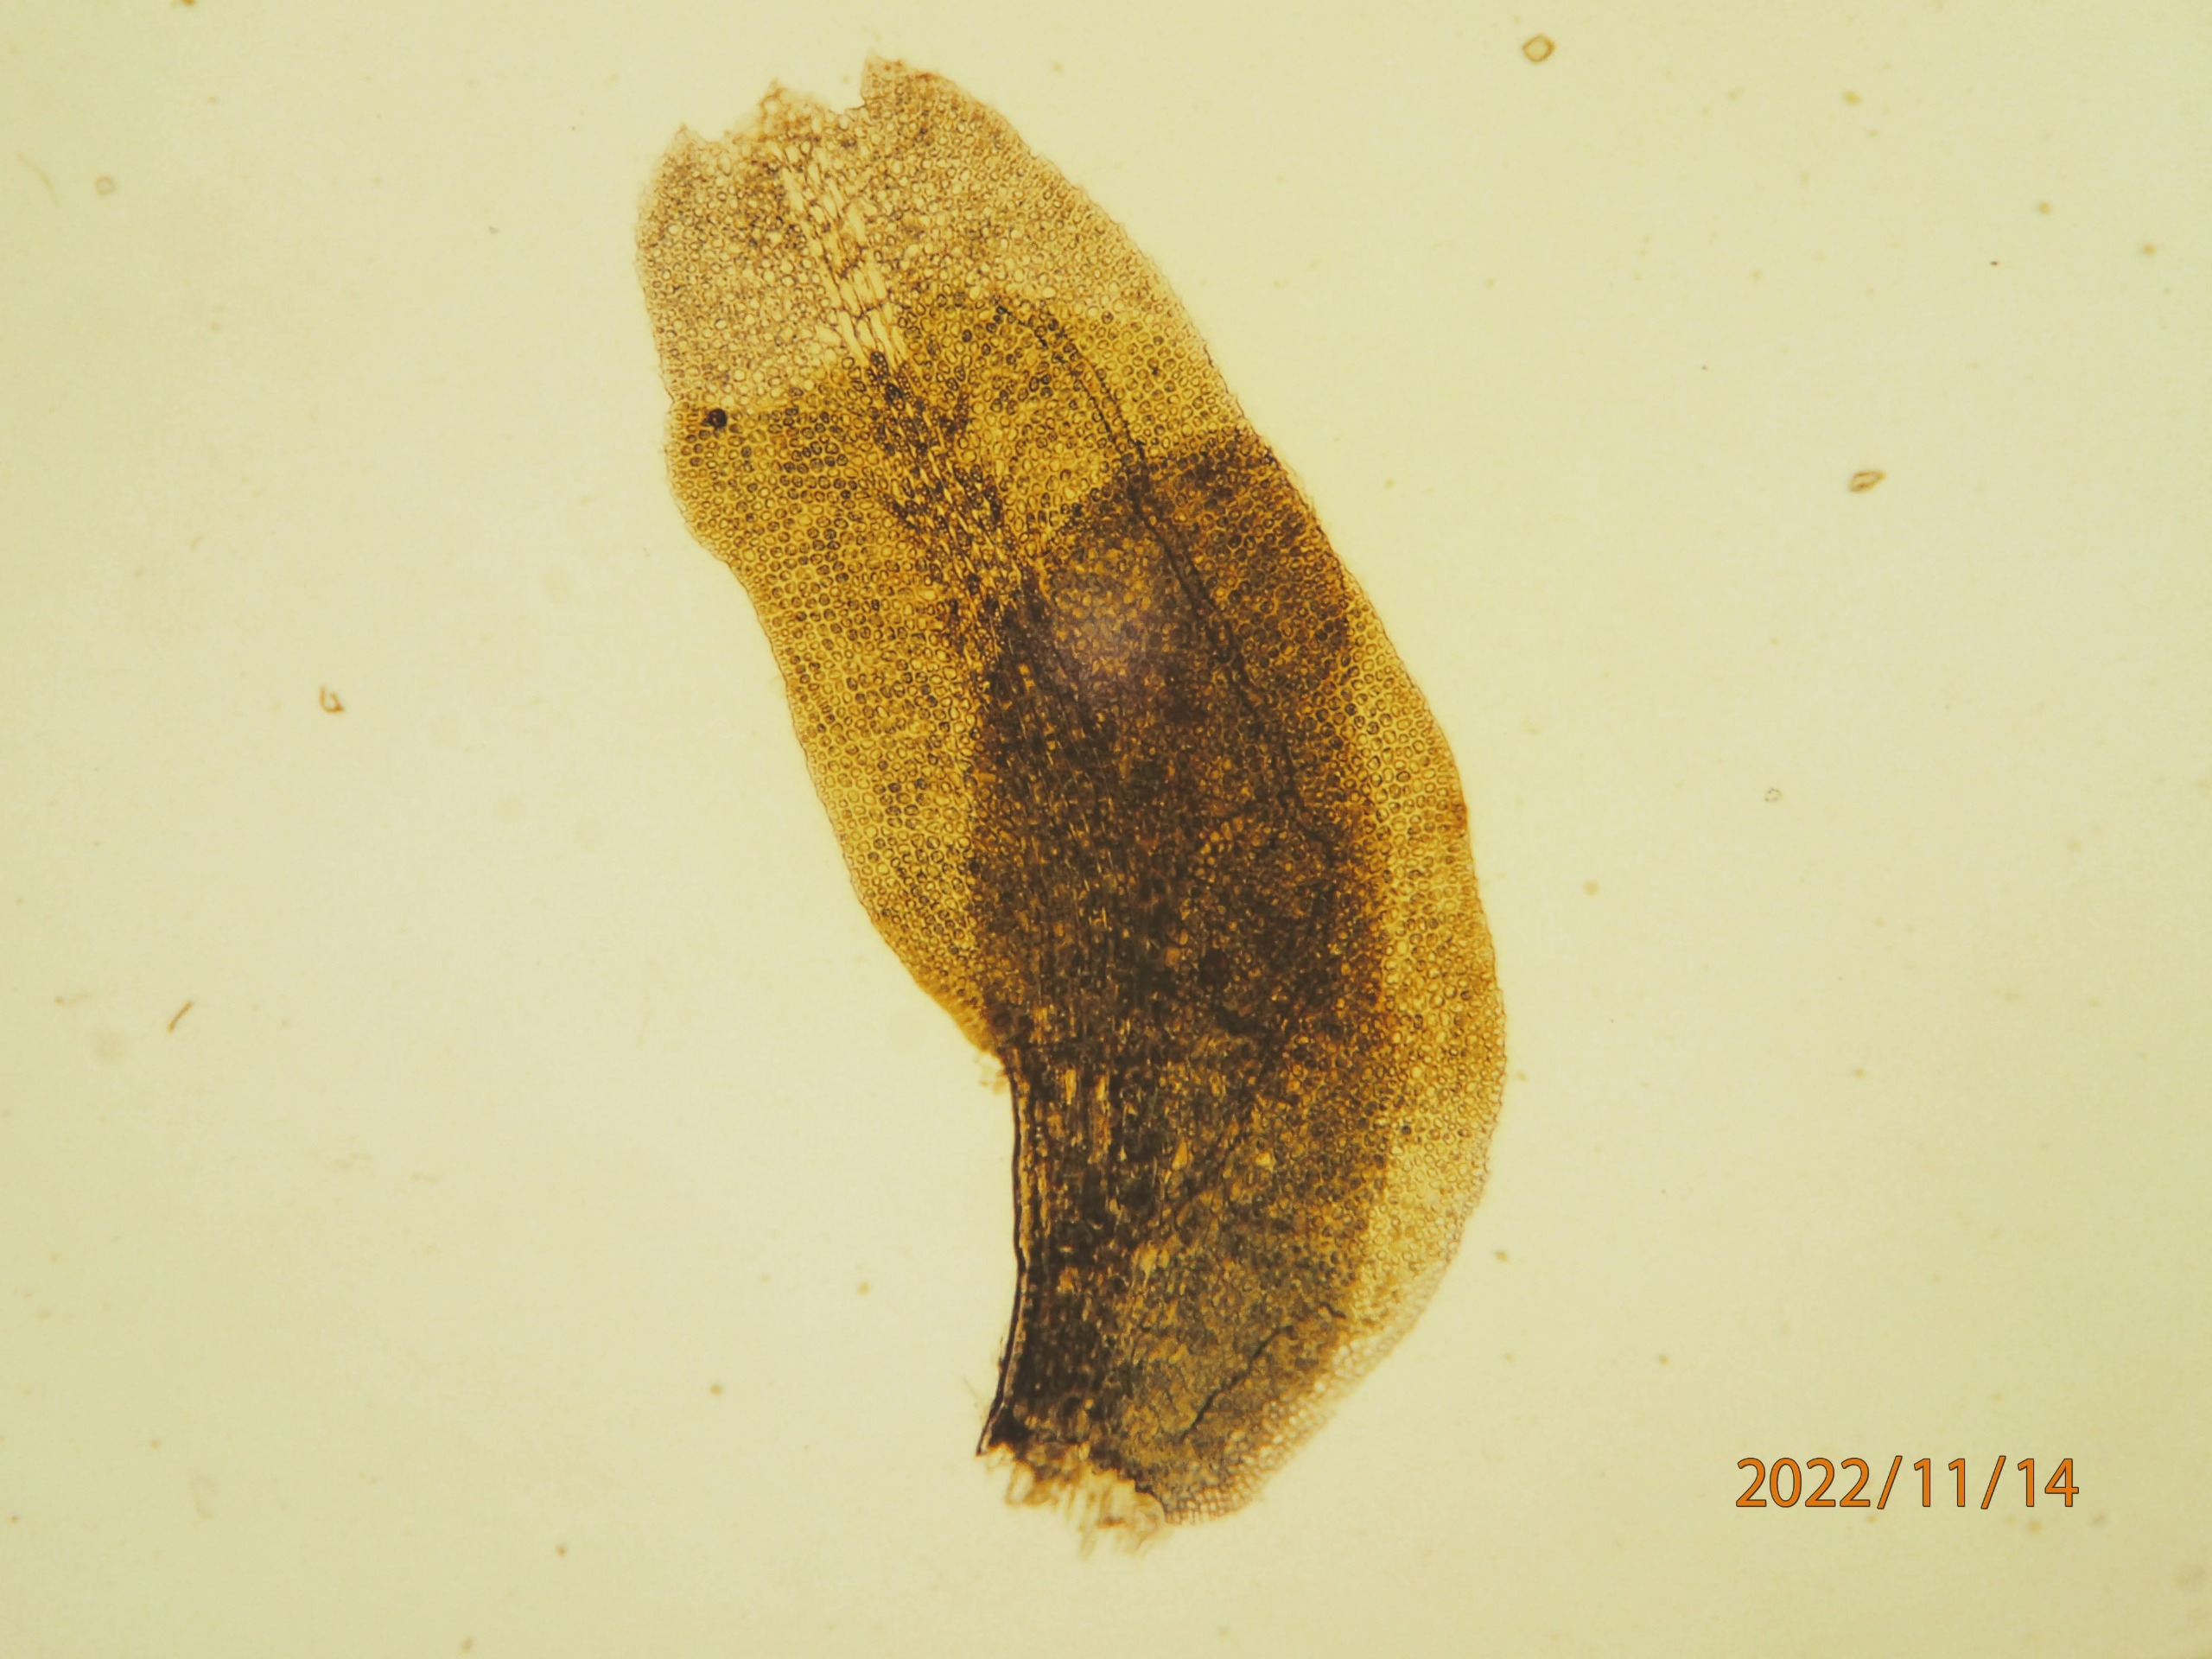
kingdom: Plantae
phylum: Marchantiophyta
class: Jungermanniopsida
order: Jungermanniales
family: Scapaniaceae
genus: Diplophyllum
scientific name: Diplophyllum albicans
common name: Stribet dobbeltblad
